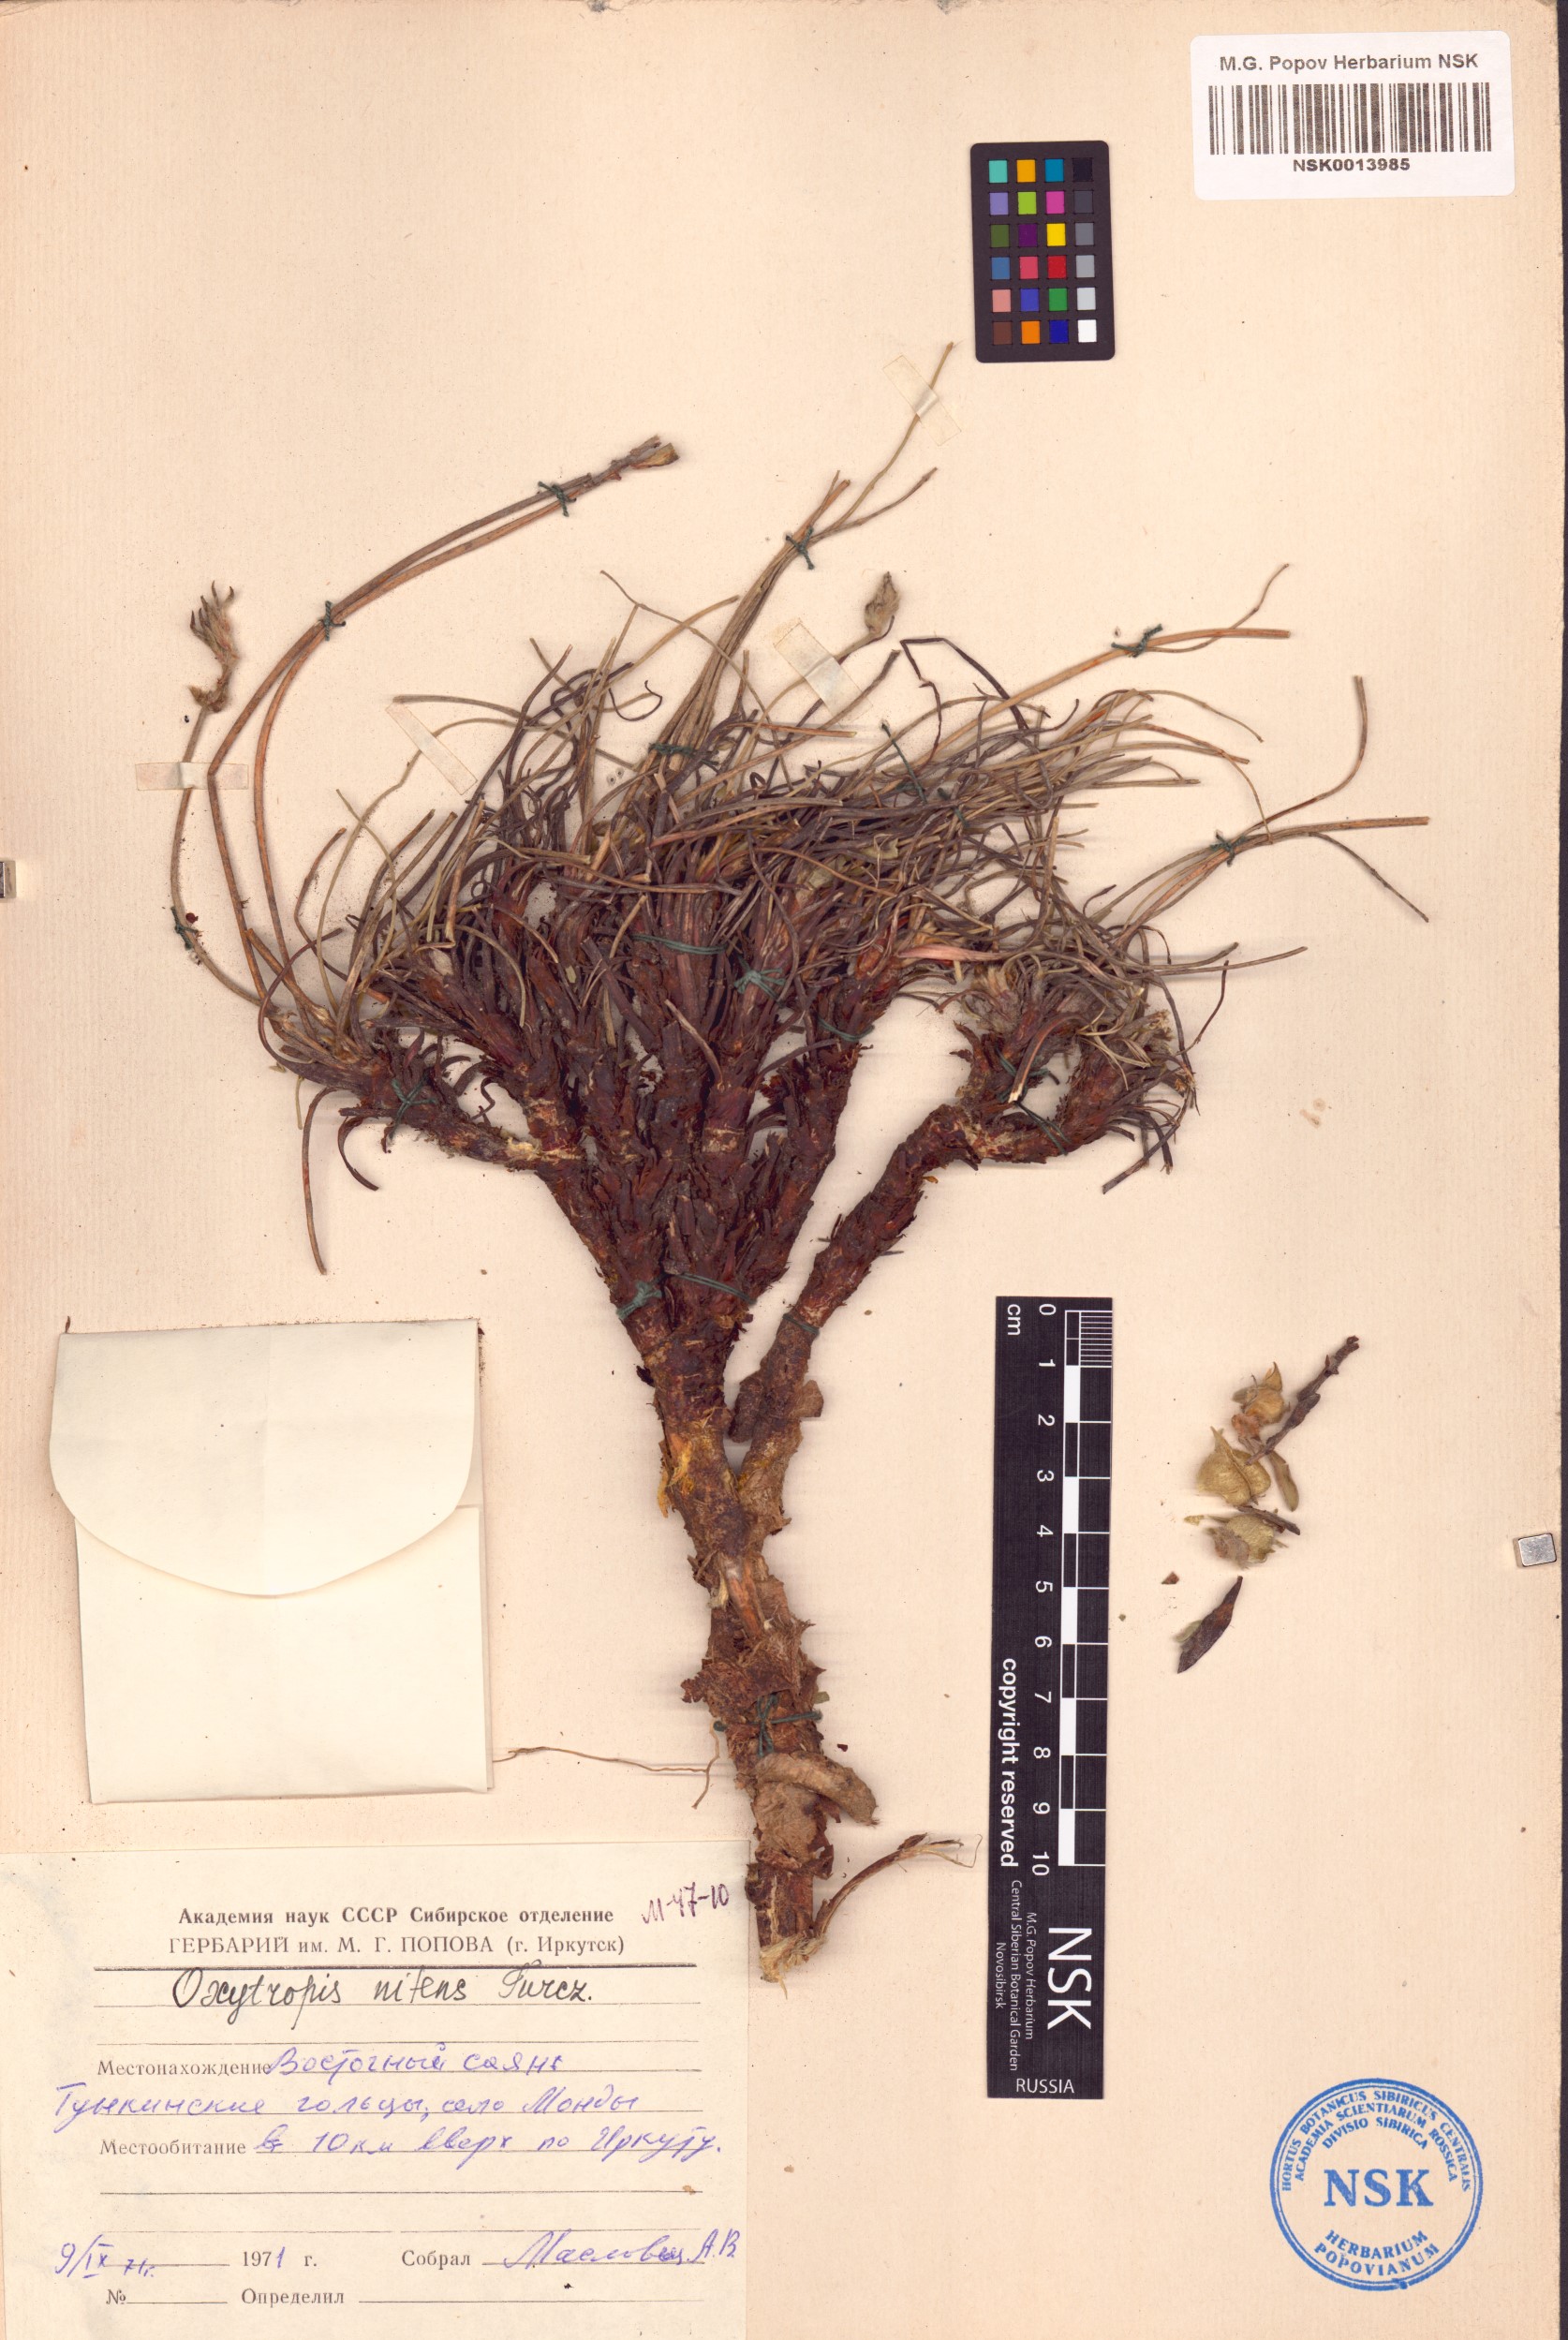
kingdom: Plantae
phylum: Tracheophyta
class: Magnoliopsida
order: Fabales
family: Fabaceae
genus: Oxytropis
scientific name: Oxytropis nitens
